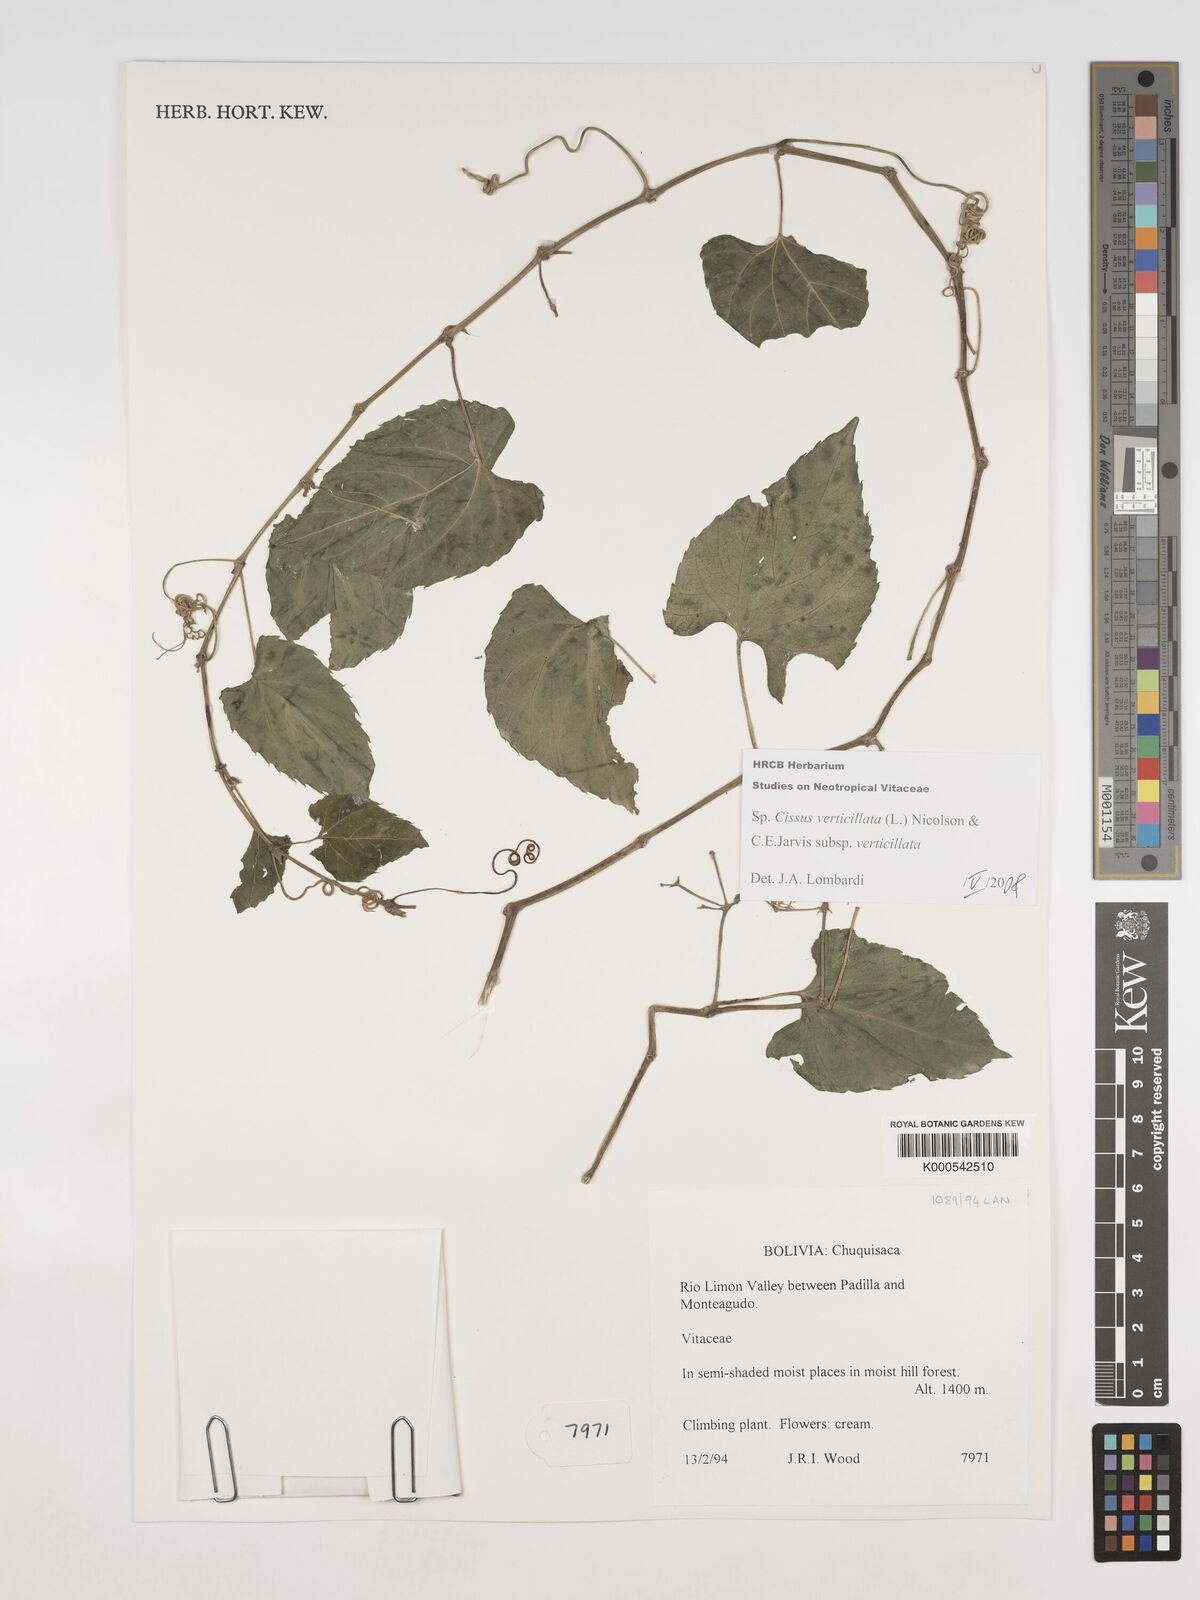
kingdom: Plantae
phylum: Tracheophyta
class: Magnoliopsida
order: Vitales
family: Vitaceae
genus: Cissus
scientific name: Cissus verticillata
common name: Princess vine
